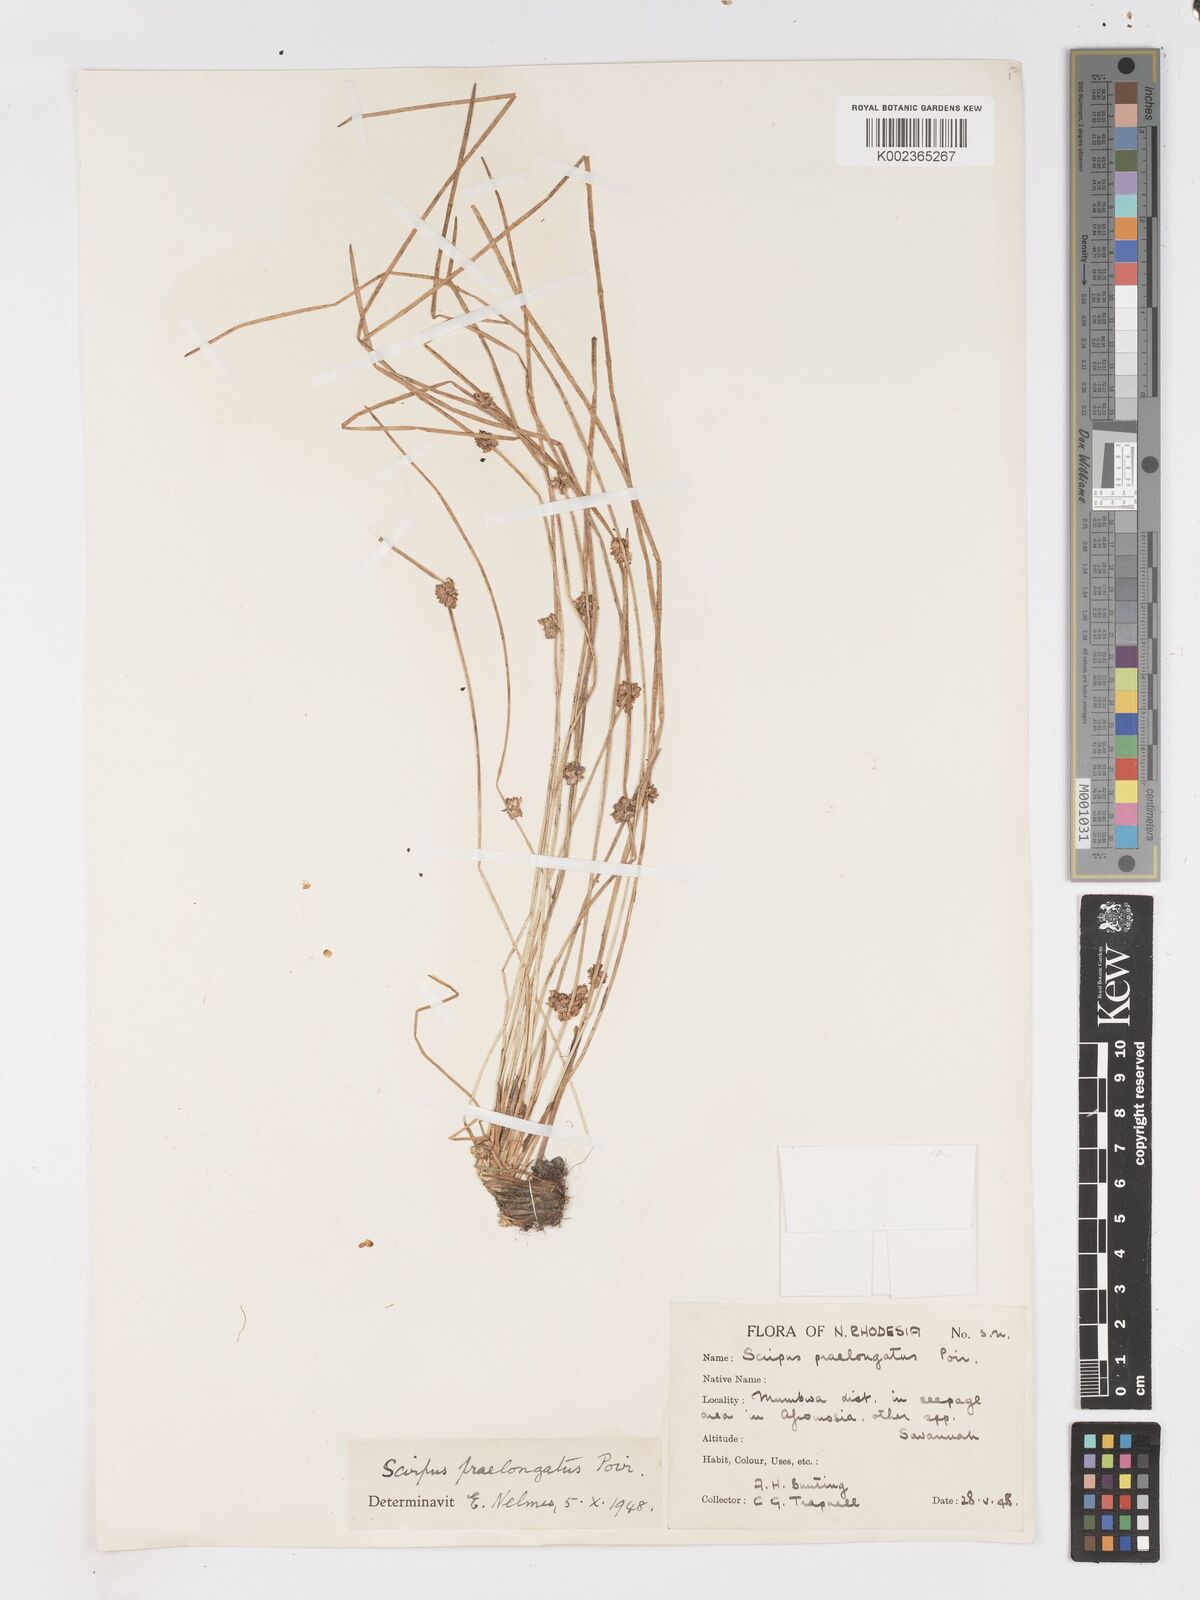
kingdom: Plantae
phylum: Tracheophyta
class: Liliopsida
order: Poales
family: Cyperaceae
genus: Schoenoplectiella
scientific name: Schoenoplectiella senegalensis
